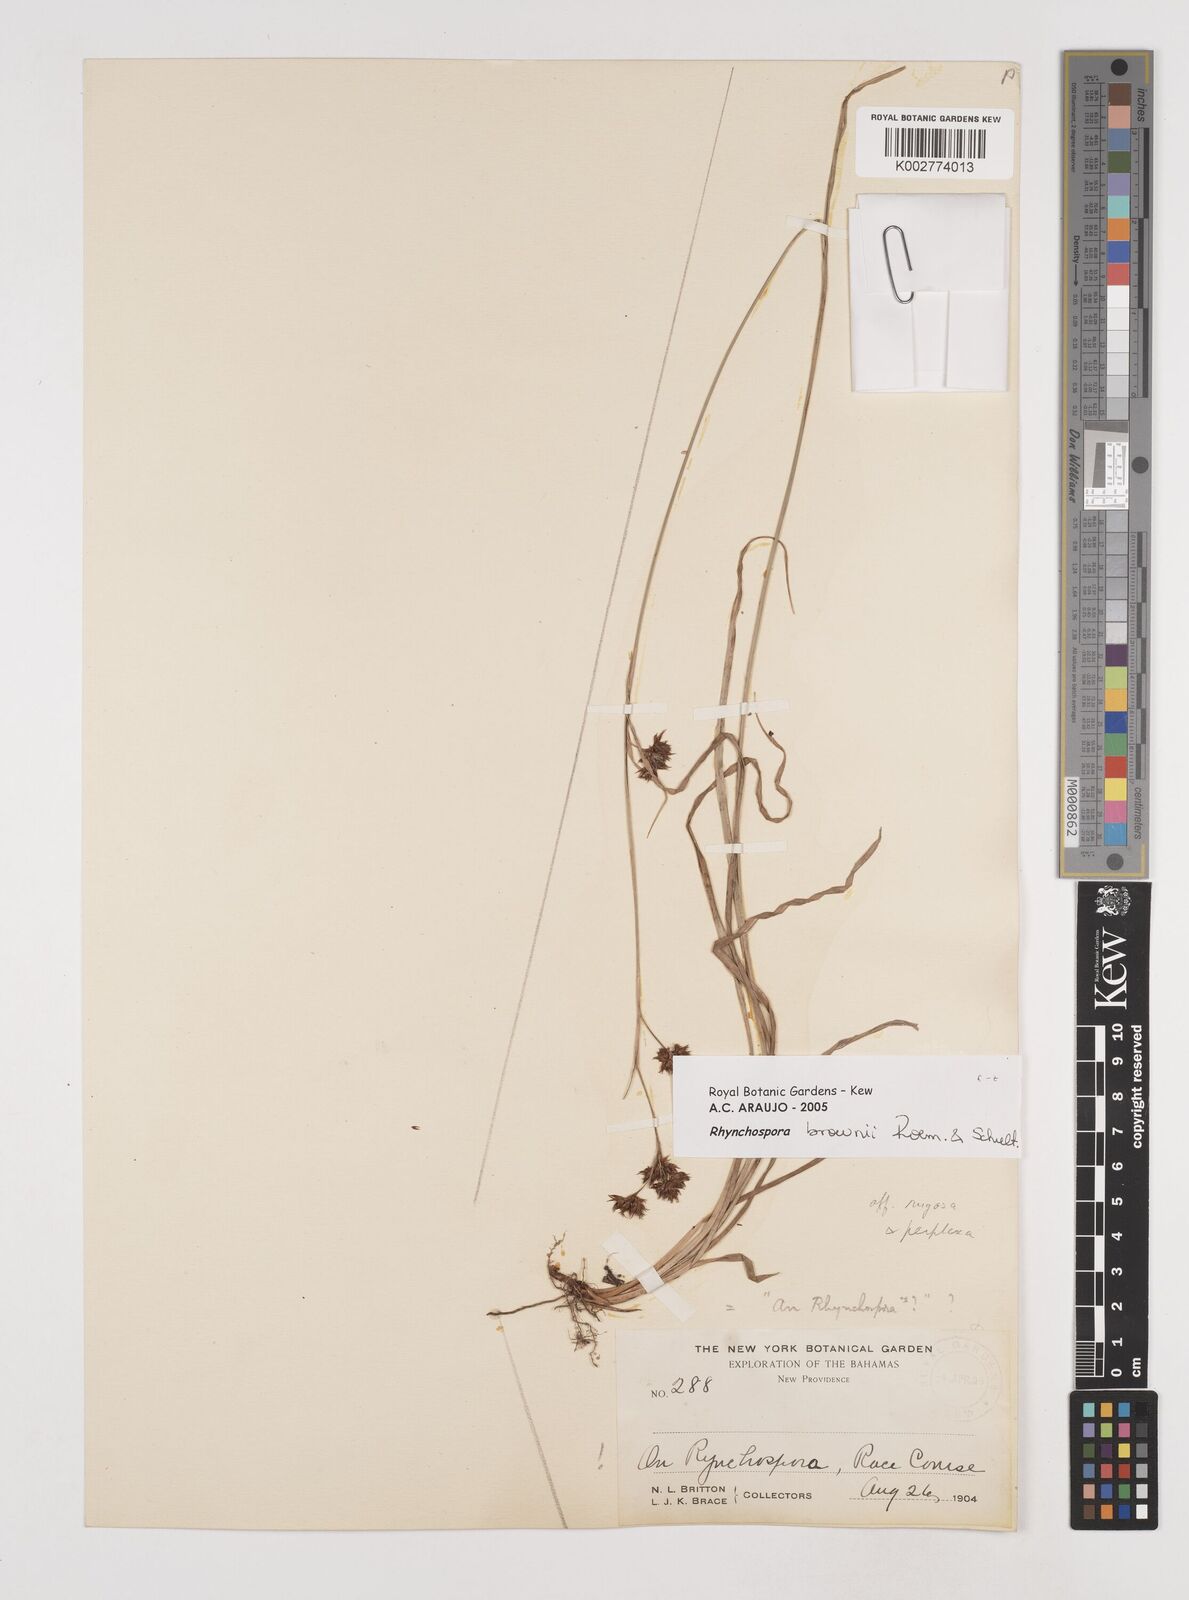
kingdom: Plantae
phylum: Tracheophyta
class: Liliopsida
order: Poales
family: Cyperaceae
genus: Rhynchospora
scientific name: Rhynchospora mexicana
